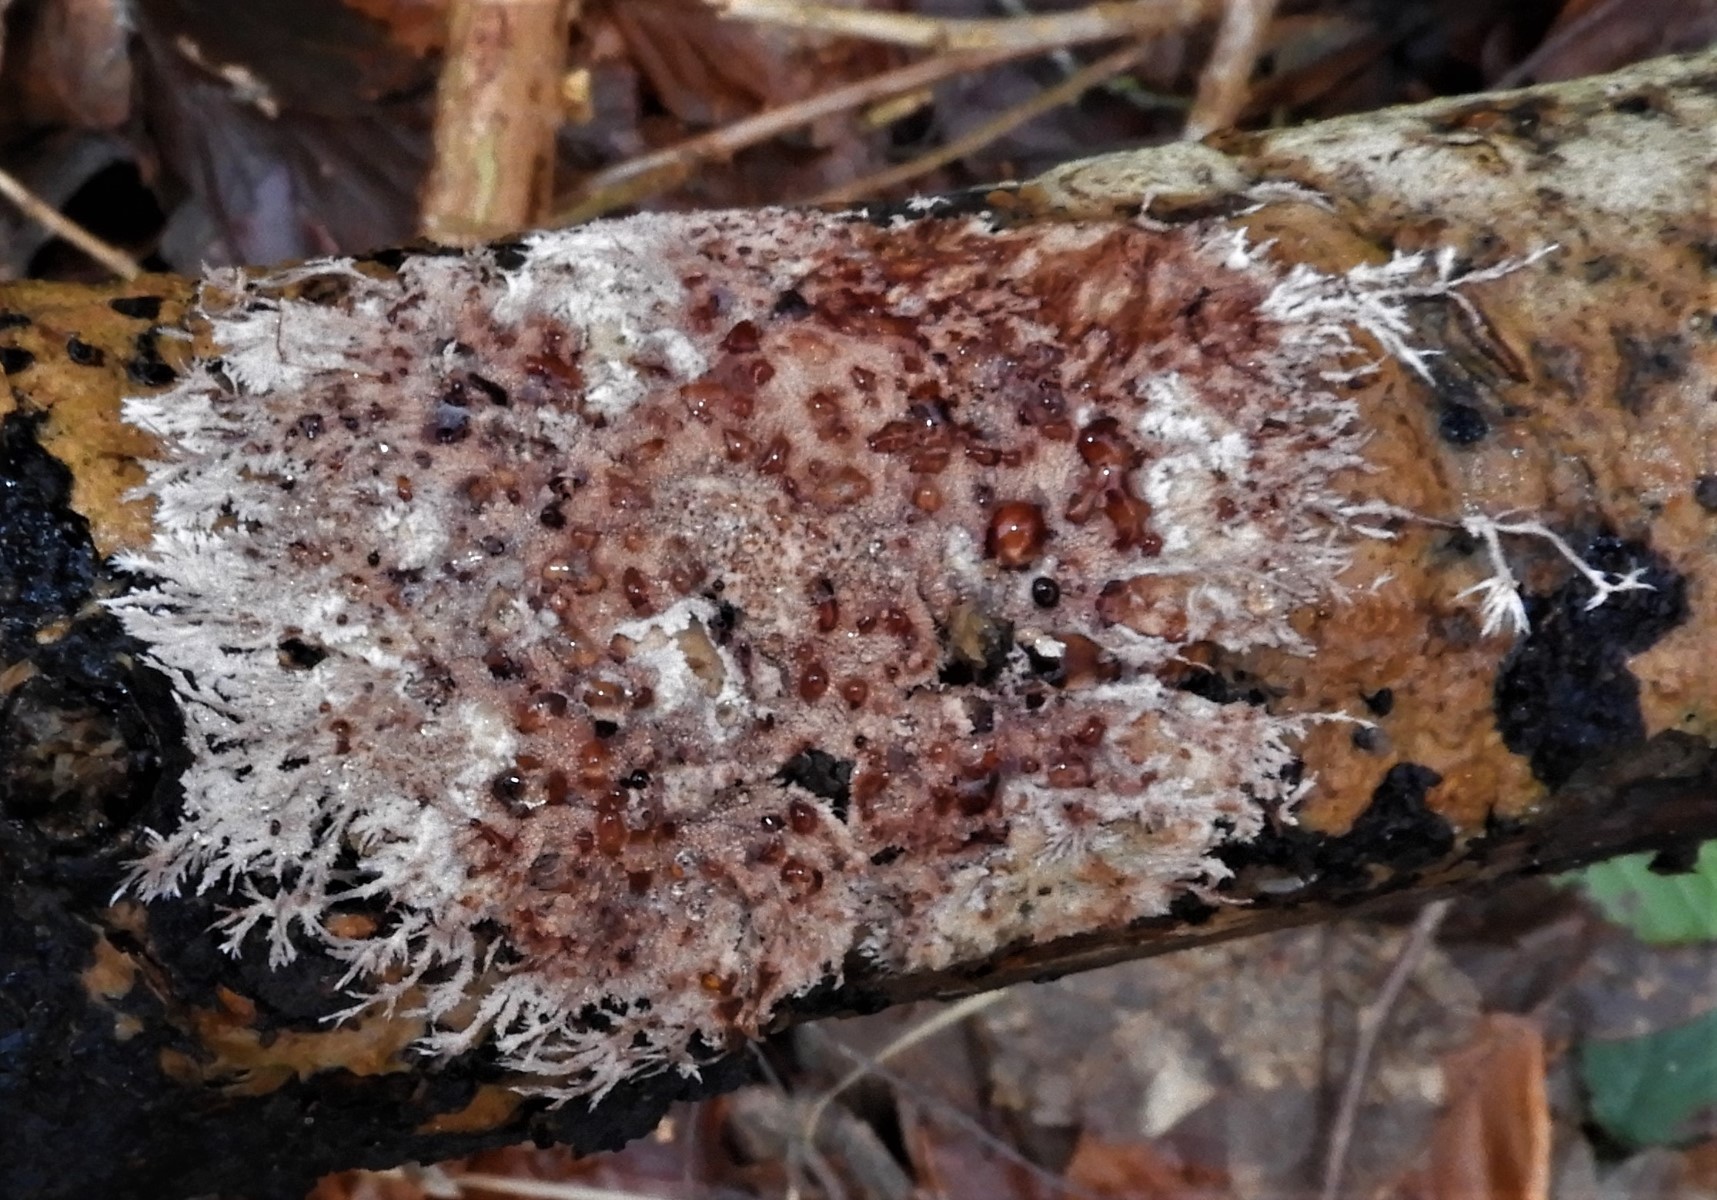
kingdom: Fungi
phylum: Basidiomycota
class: Agaricomycetes
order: Polyporales
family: Steccherinaceae
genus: Steccherinum
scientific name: Steccherinum fimbriatum
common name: trådet skønpig
